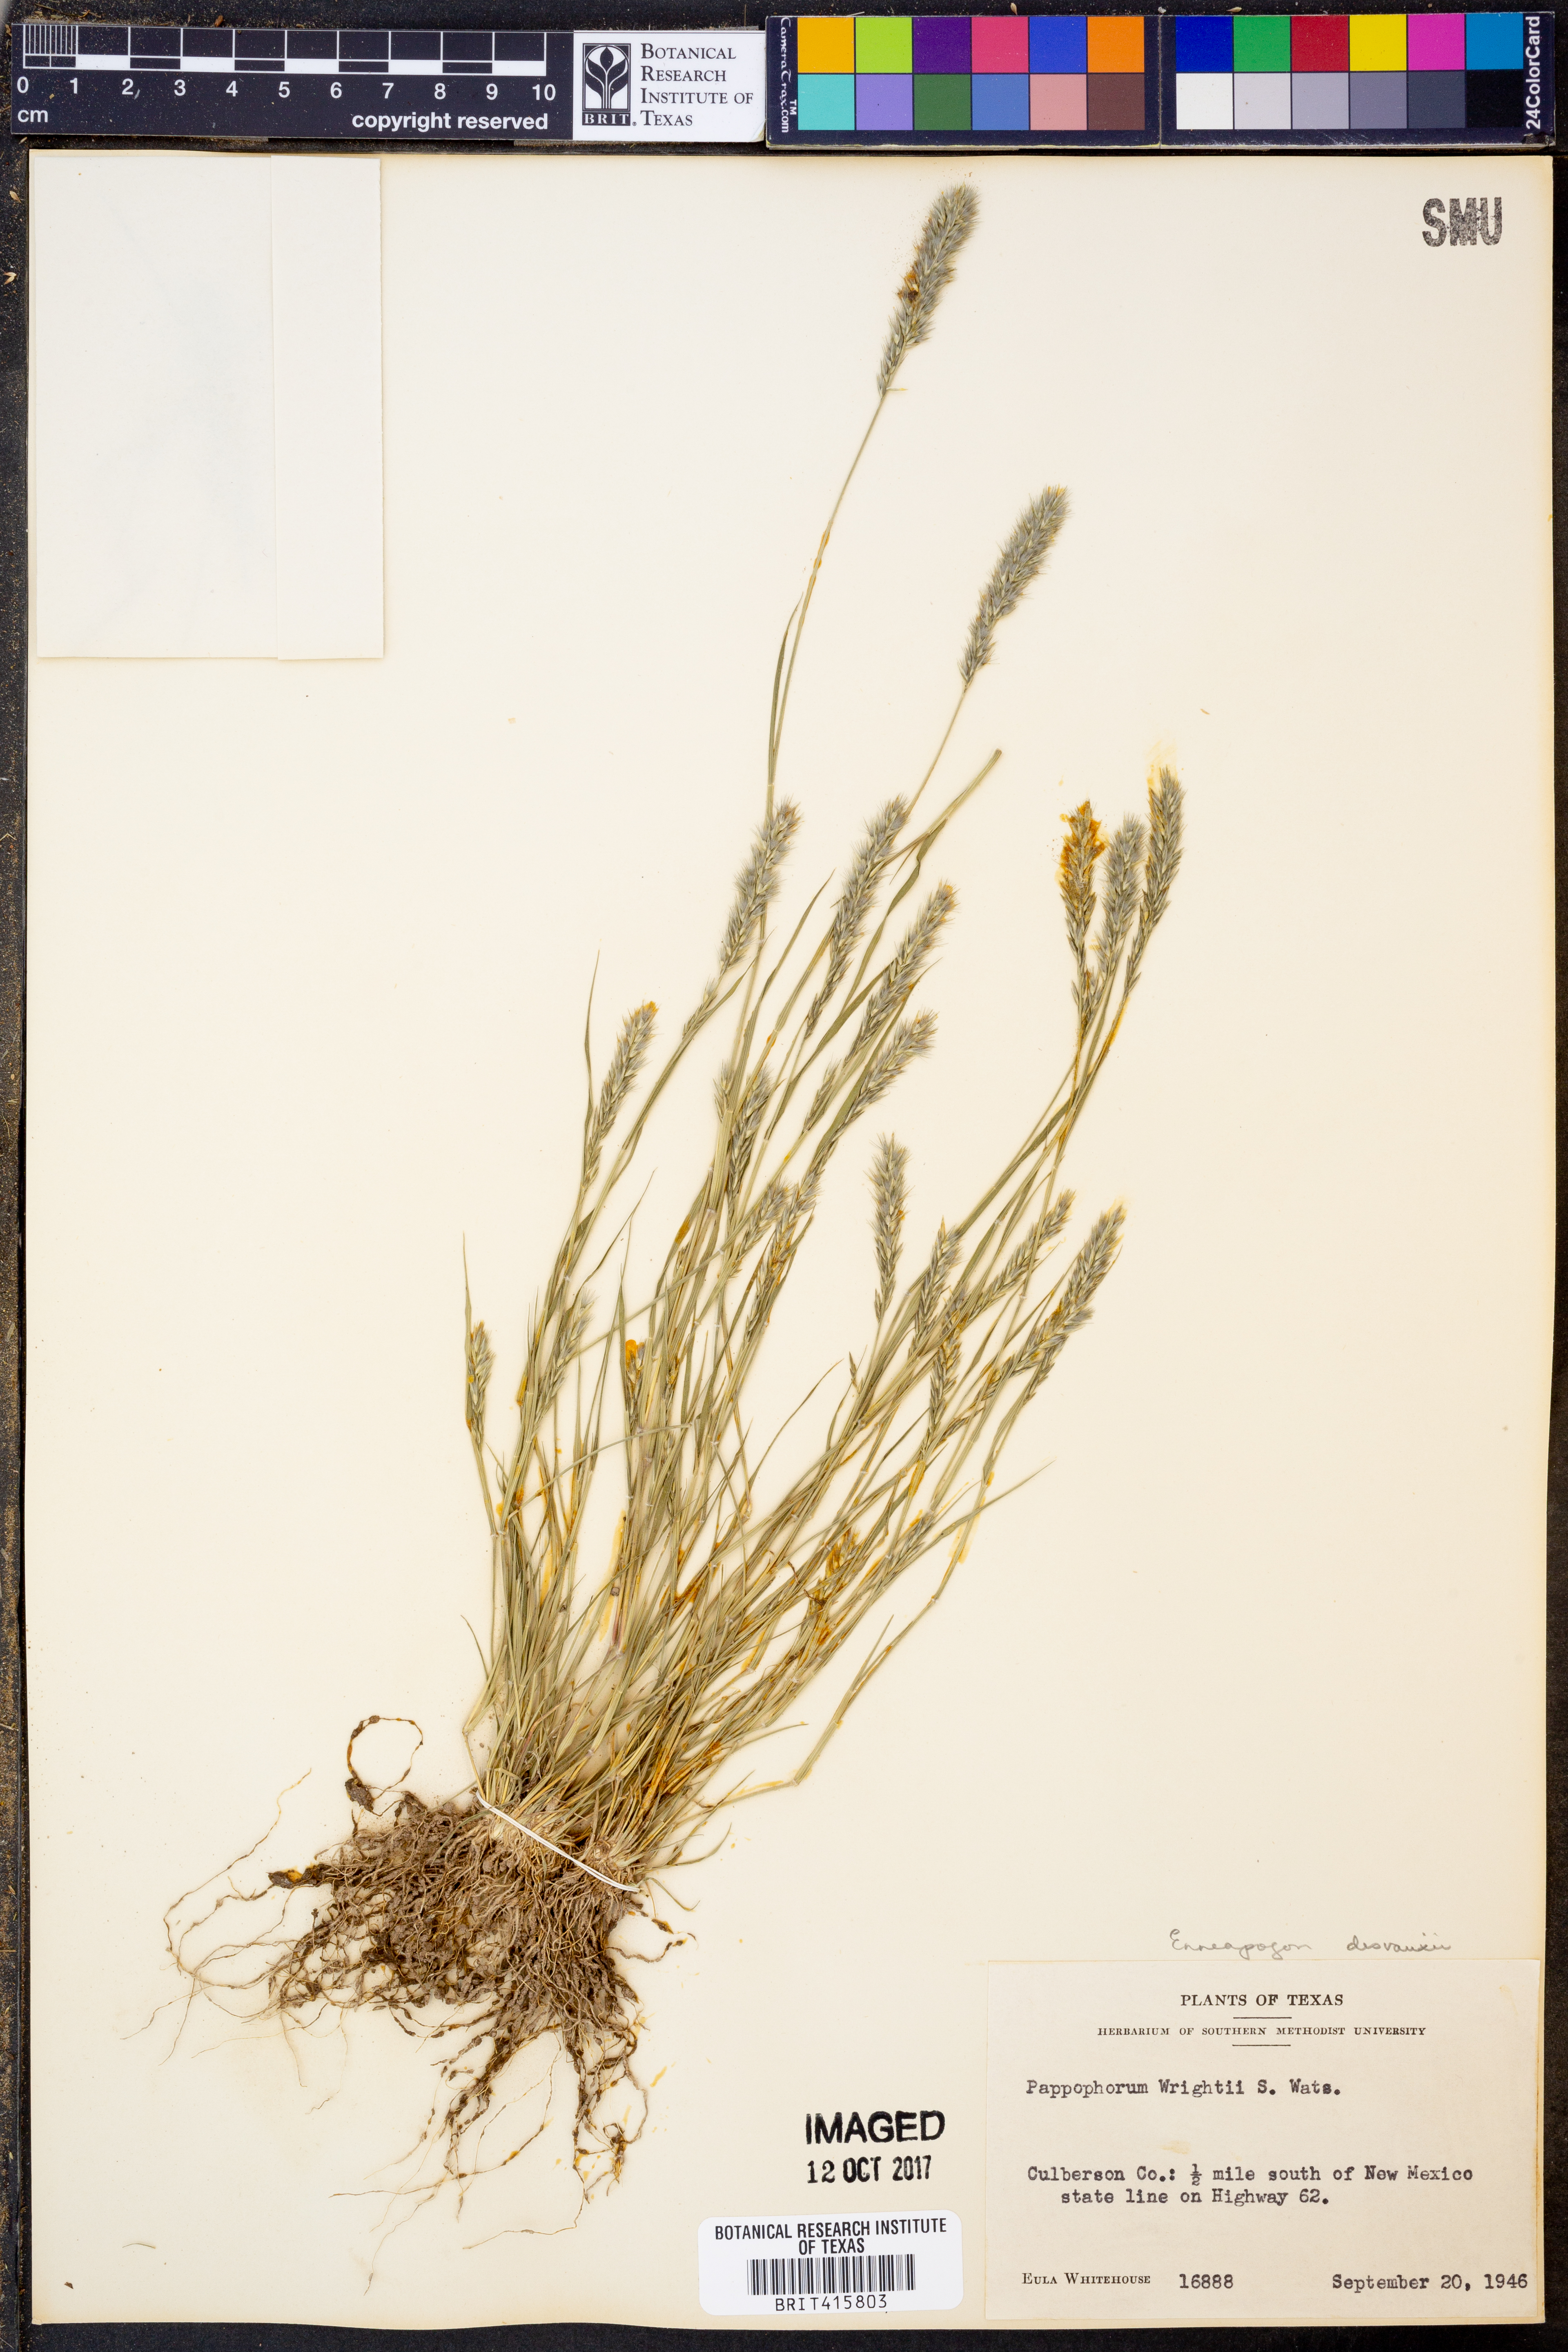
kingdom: Plantae
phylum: Tracheophyta
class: Liliopsida
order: Poales
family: Poaceae
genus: Enneapogon
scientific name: Enneapogon desvauxii
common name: Feather pappus grass
